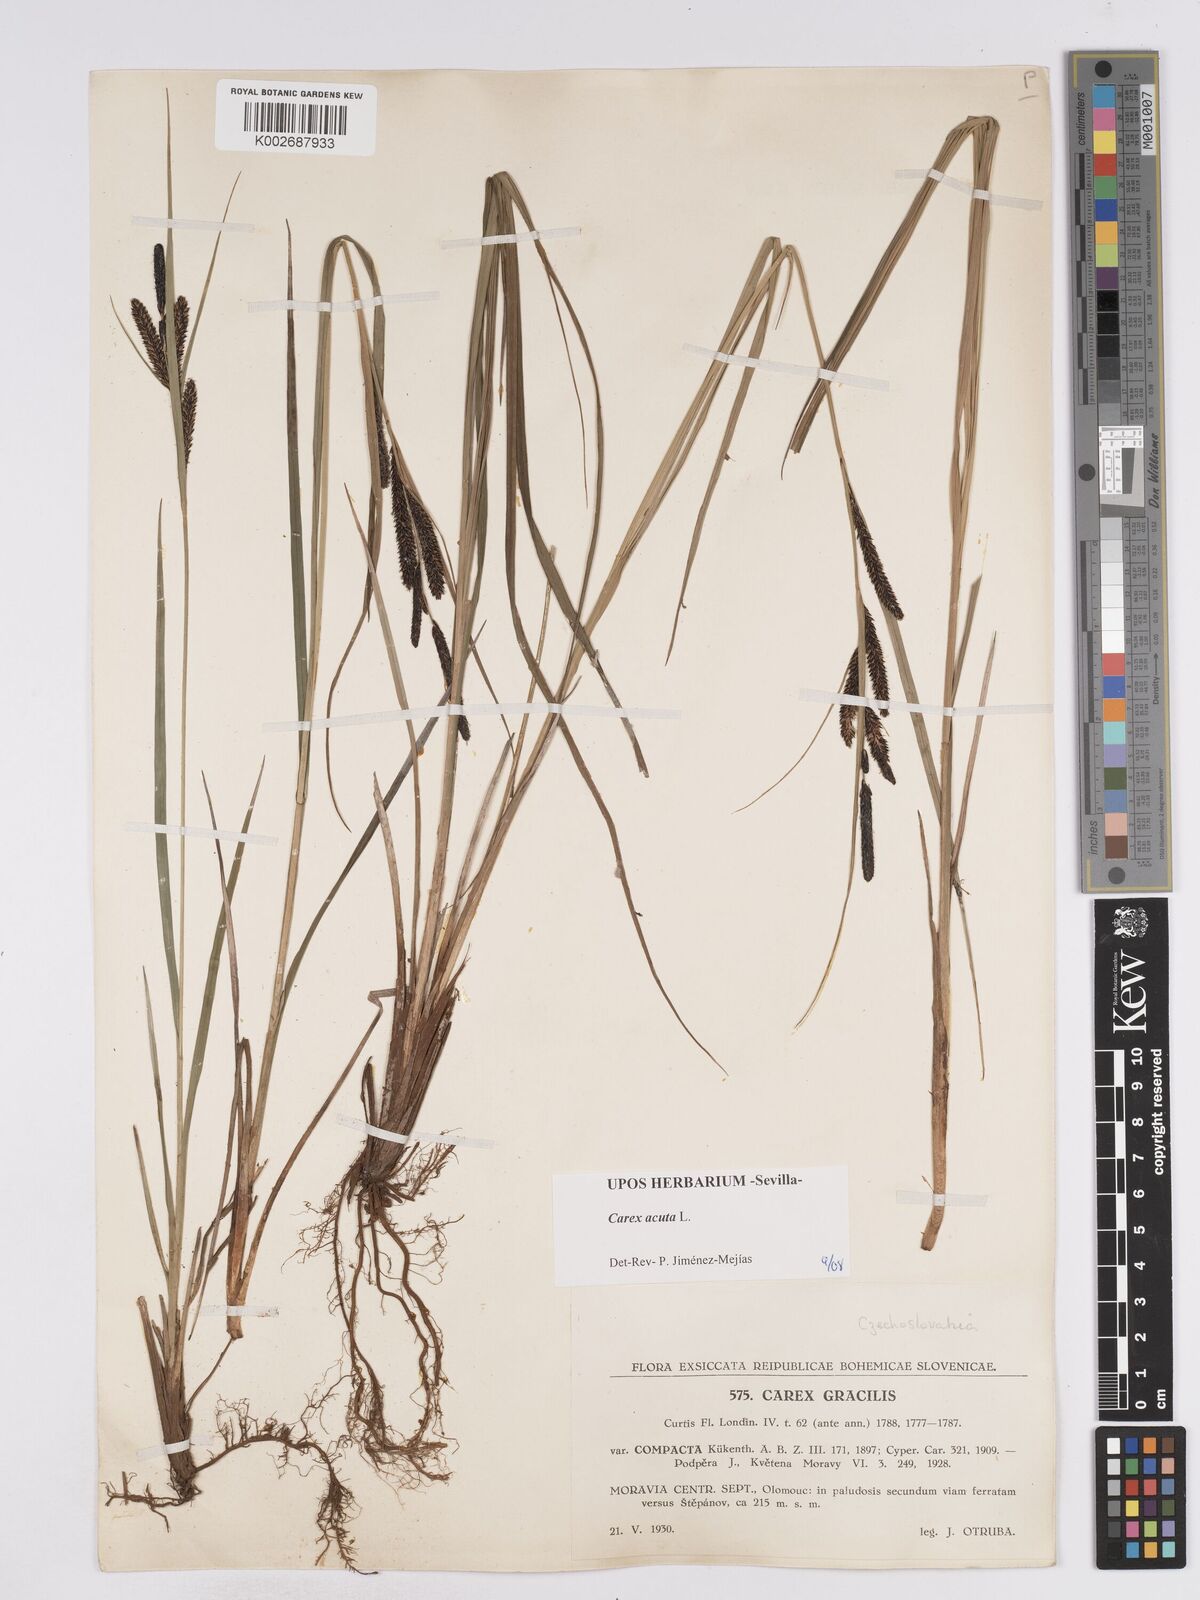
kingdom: Plantae
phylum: Tracheophyta
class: Liliopsida
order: Poales
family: Cyperaceae
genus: Carex
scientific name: Carex acuta
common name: Slender tufted-sedge
